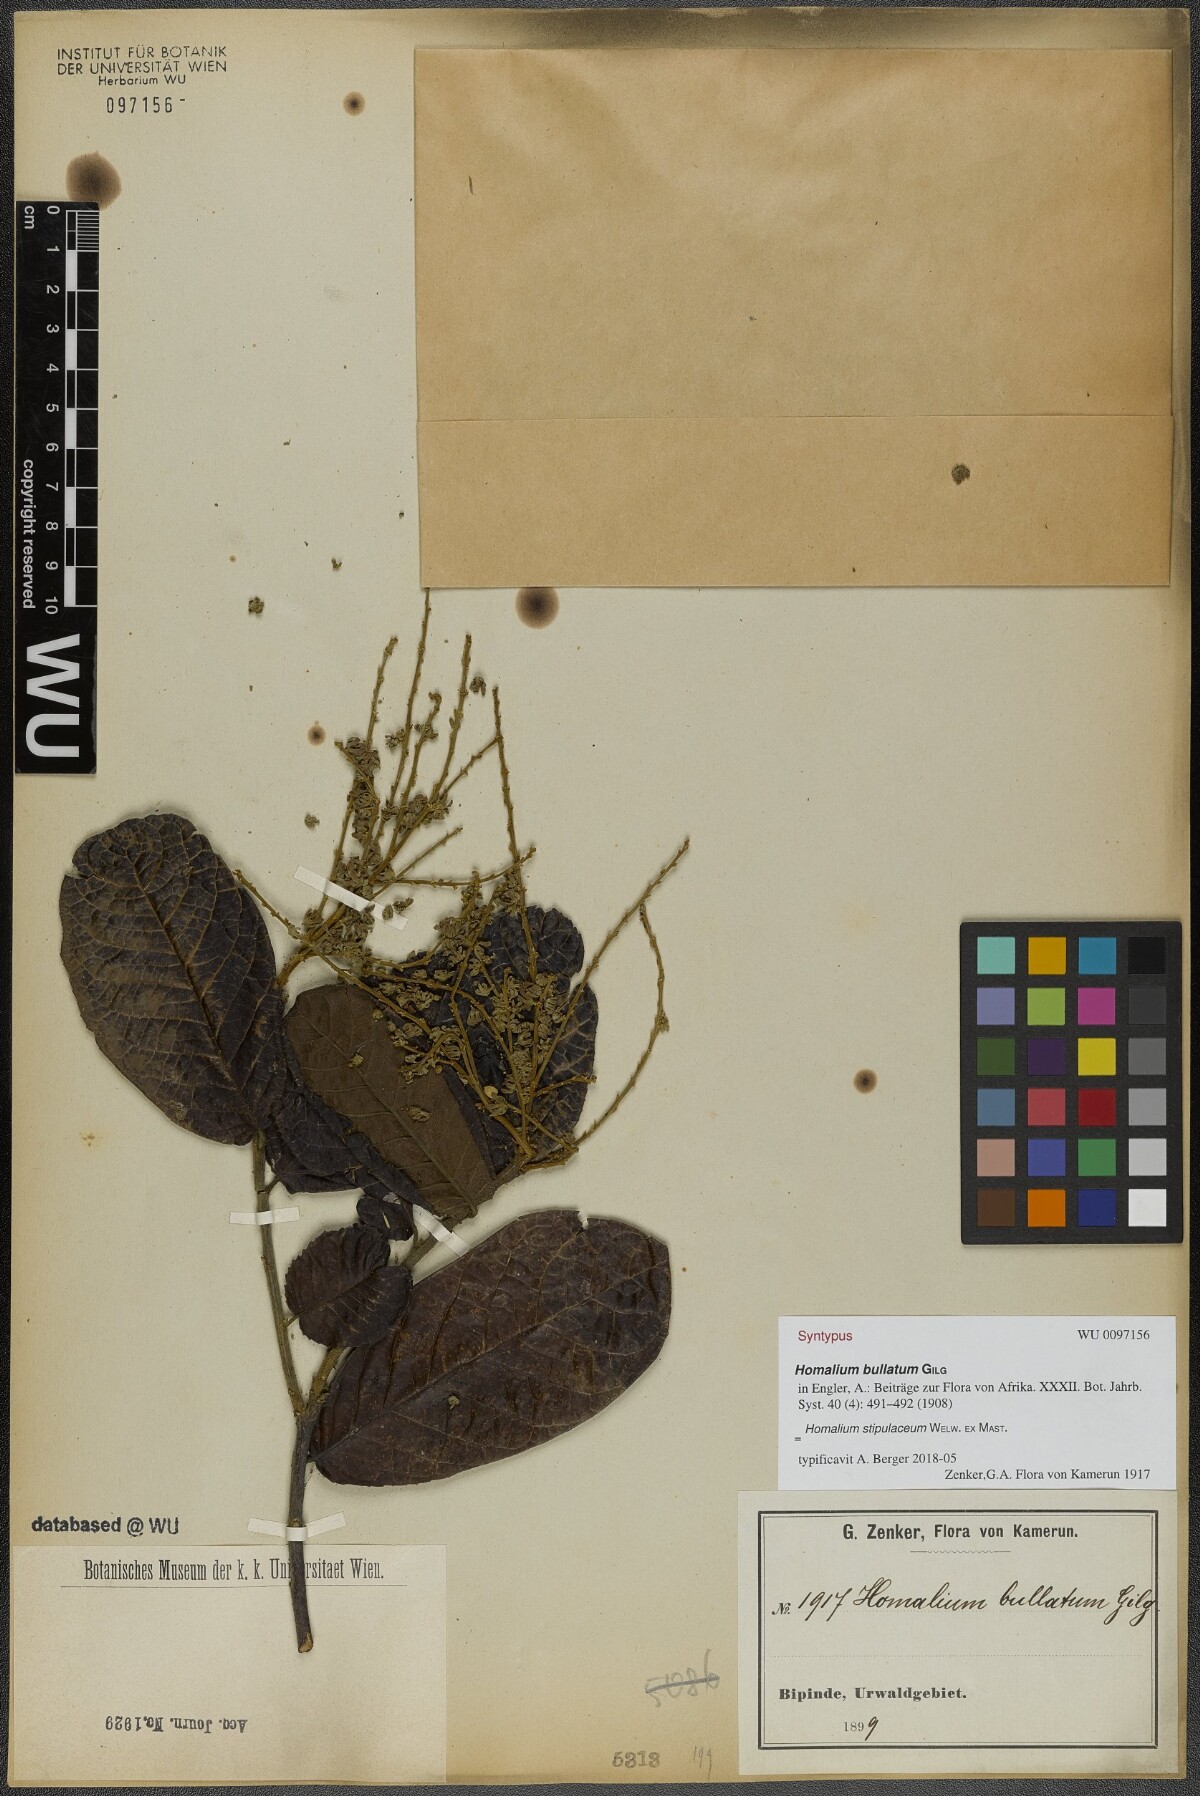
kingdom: Plantae
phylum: Tracheophyta
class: Magnoliopsida
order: Malpighiales
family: Salicaceae
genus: Homalium
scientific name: Homalium stipulaceum
